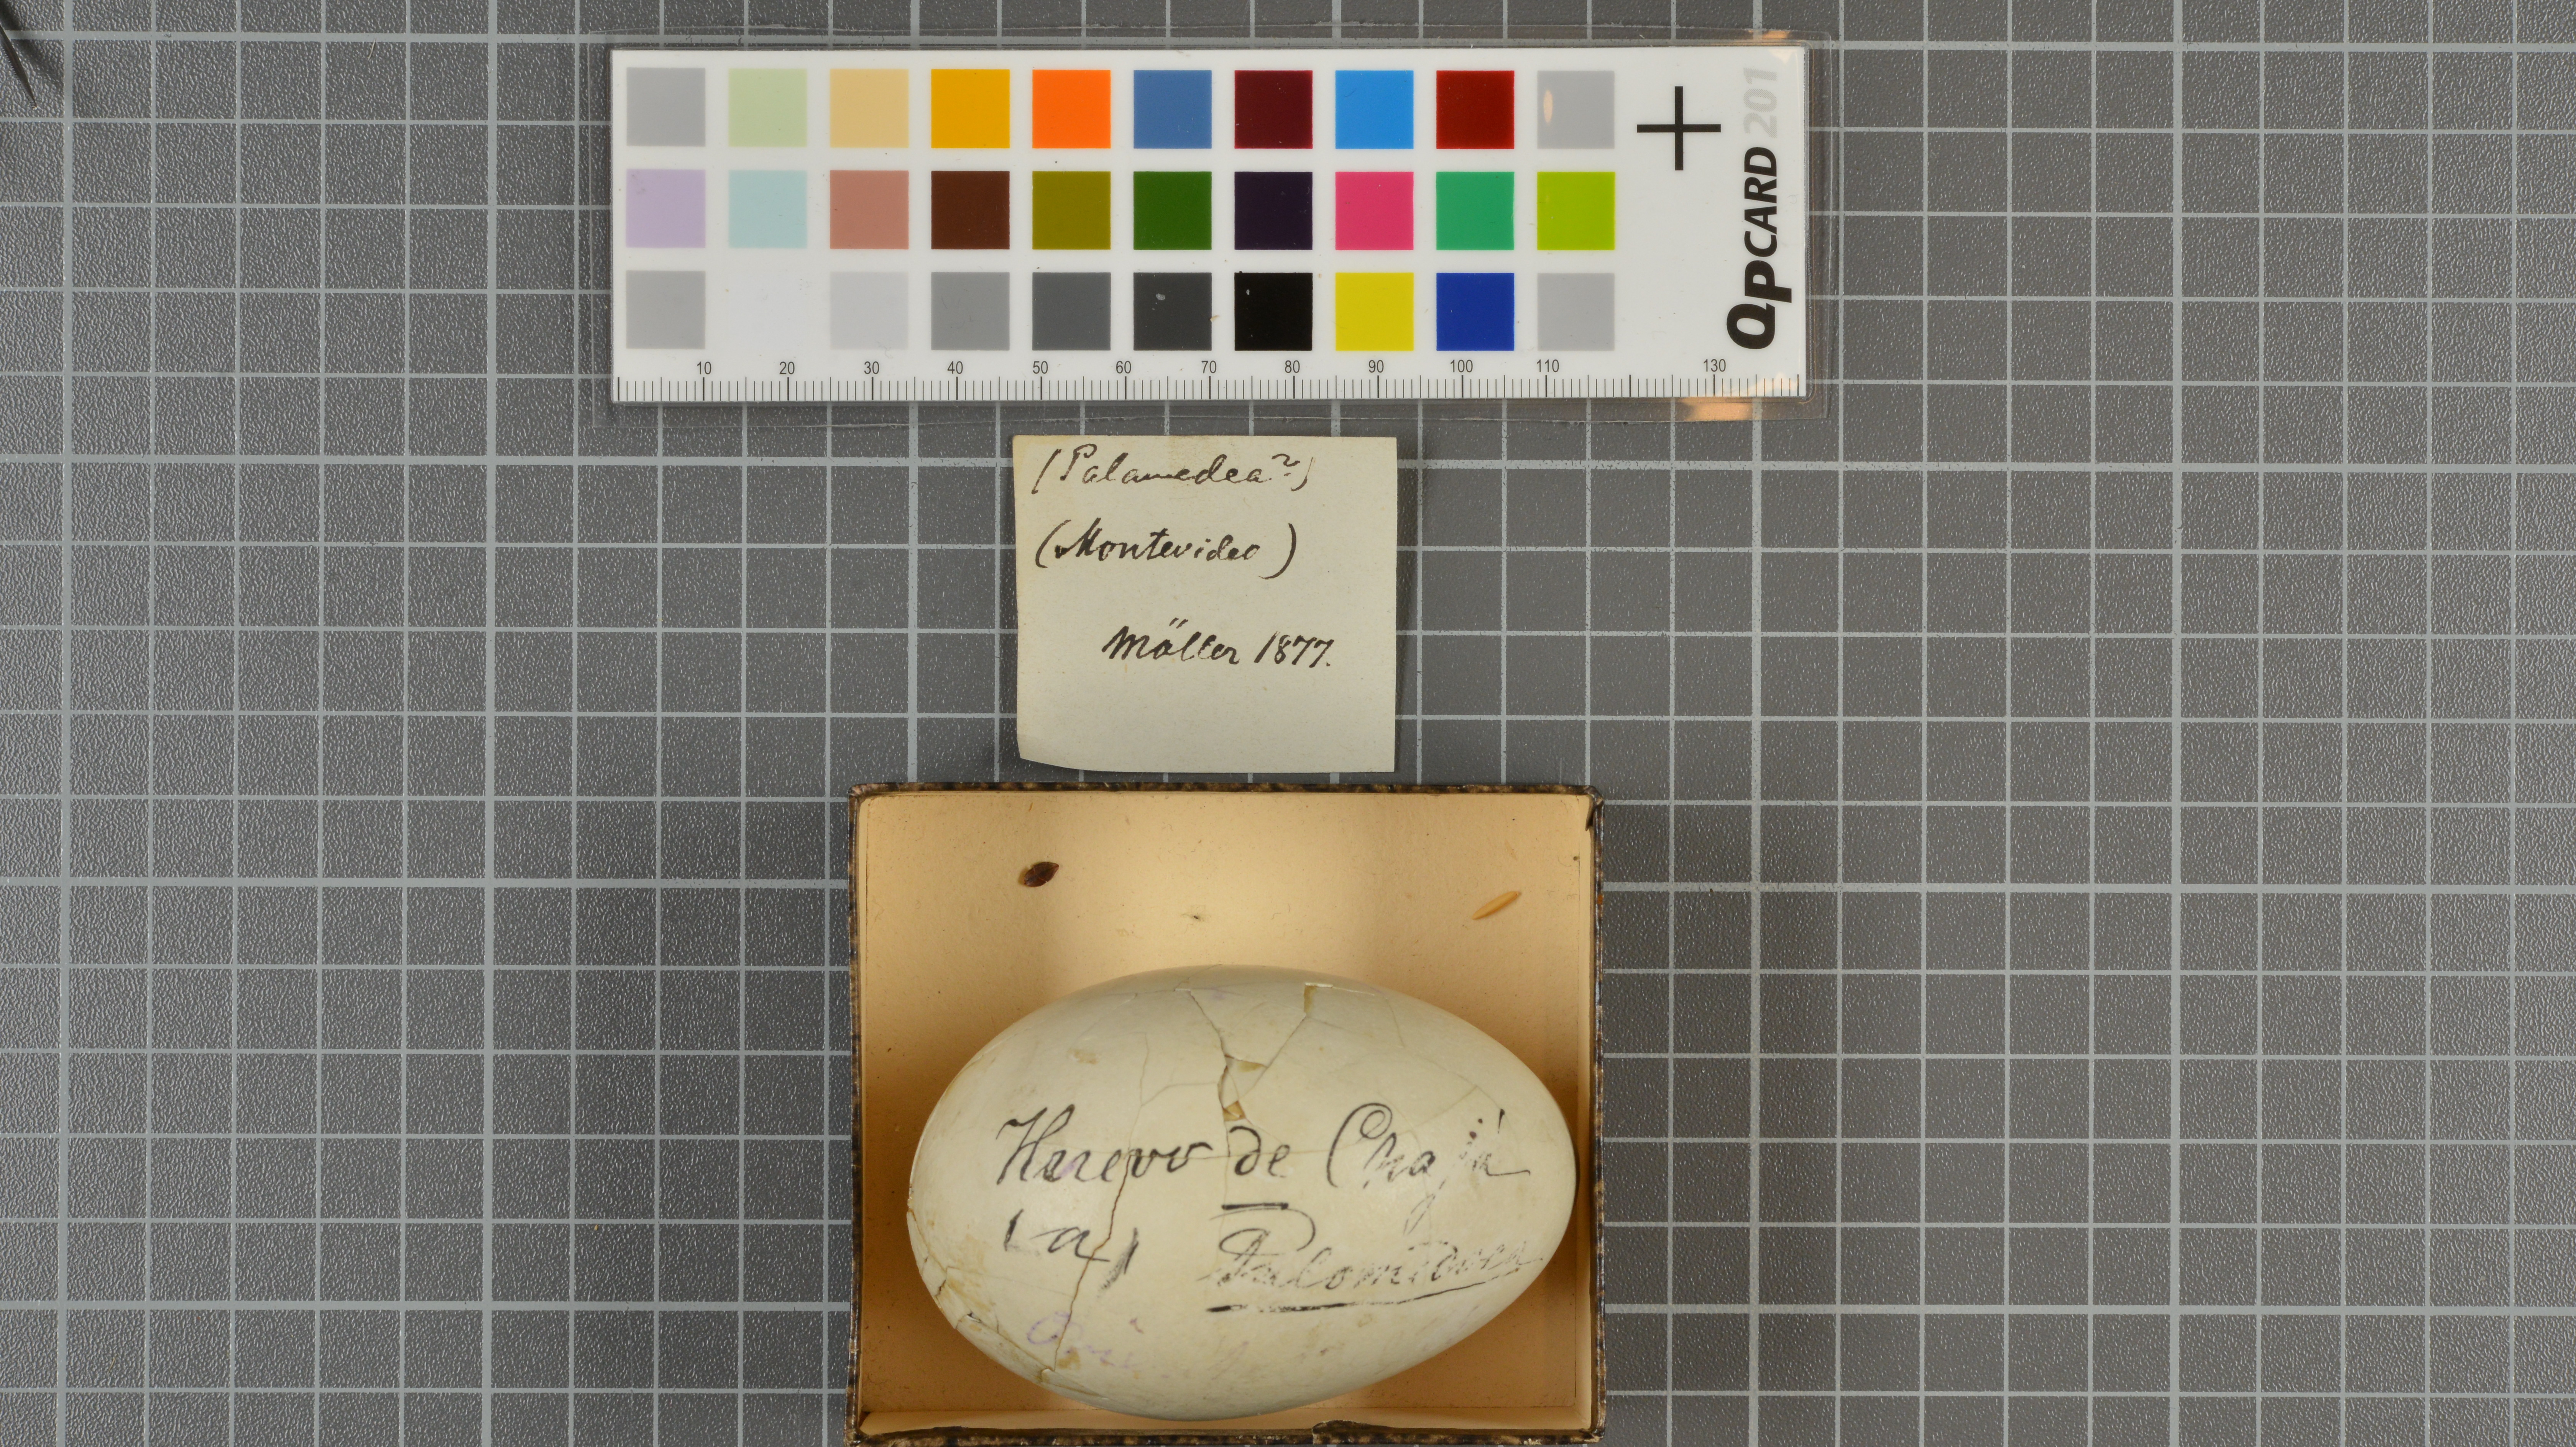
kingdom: Animalia
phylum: Chordata
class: Aves
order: Anseriformes
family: Anhimidae
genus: Chauna
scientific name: Chauna torquata
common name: Southern screamer
